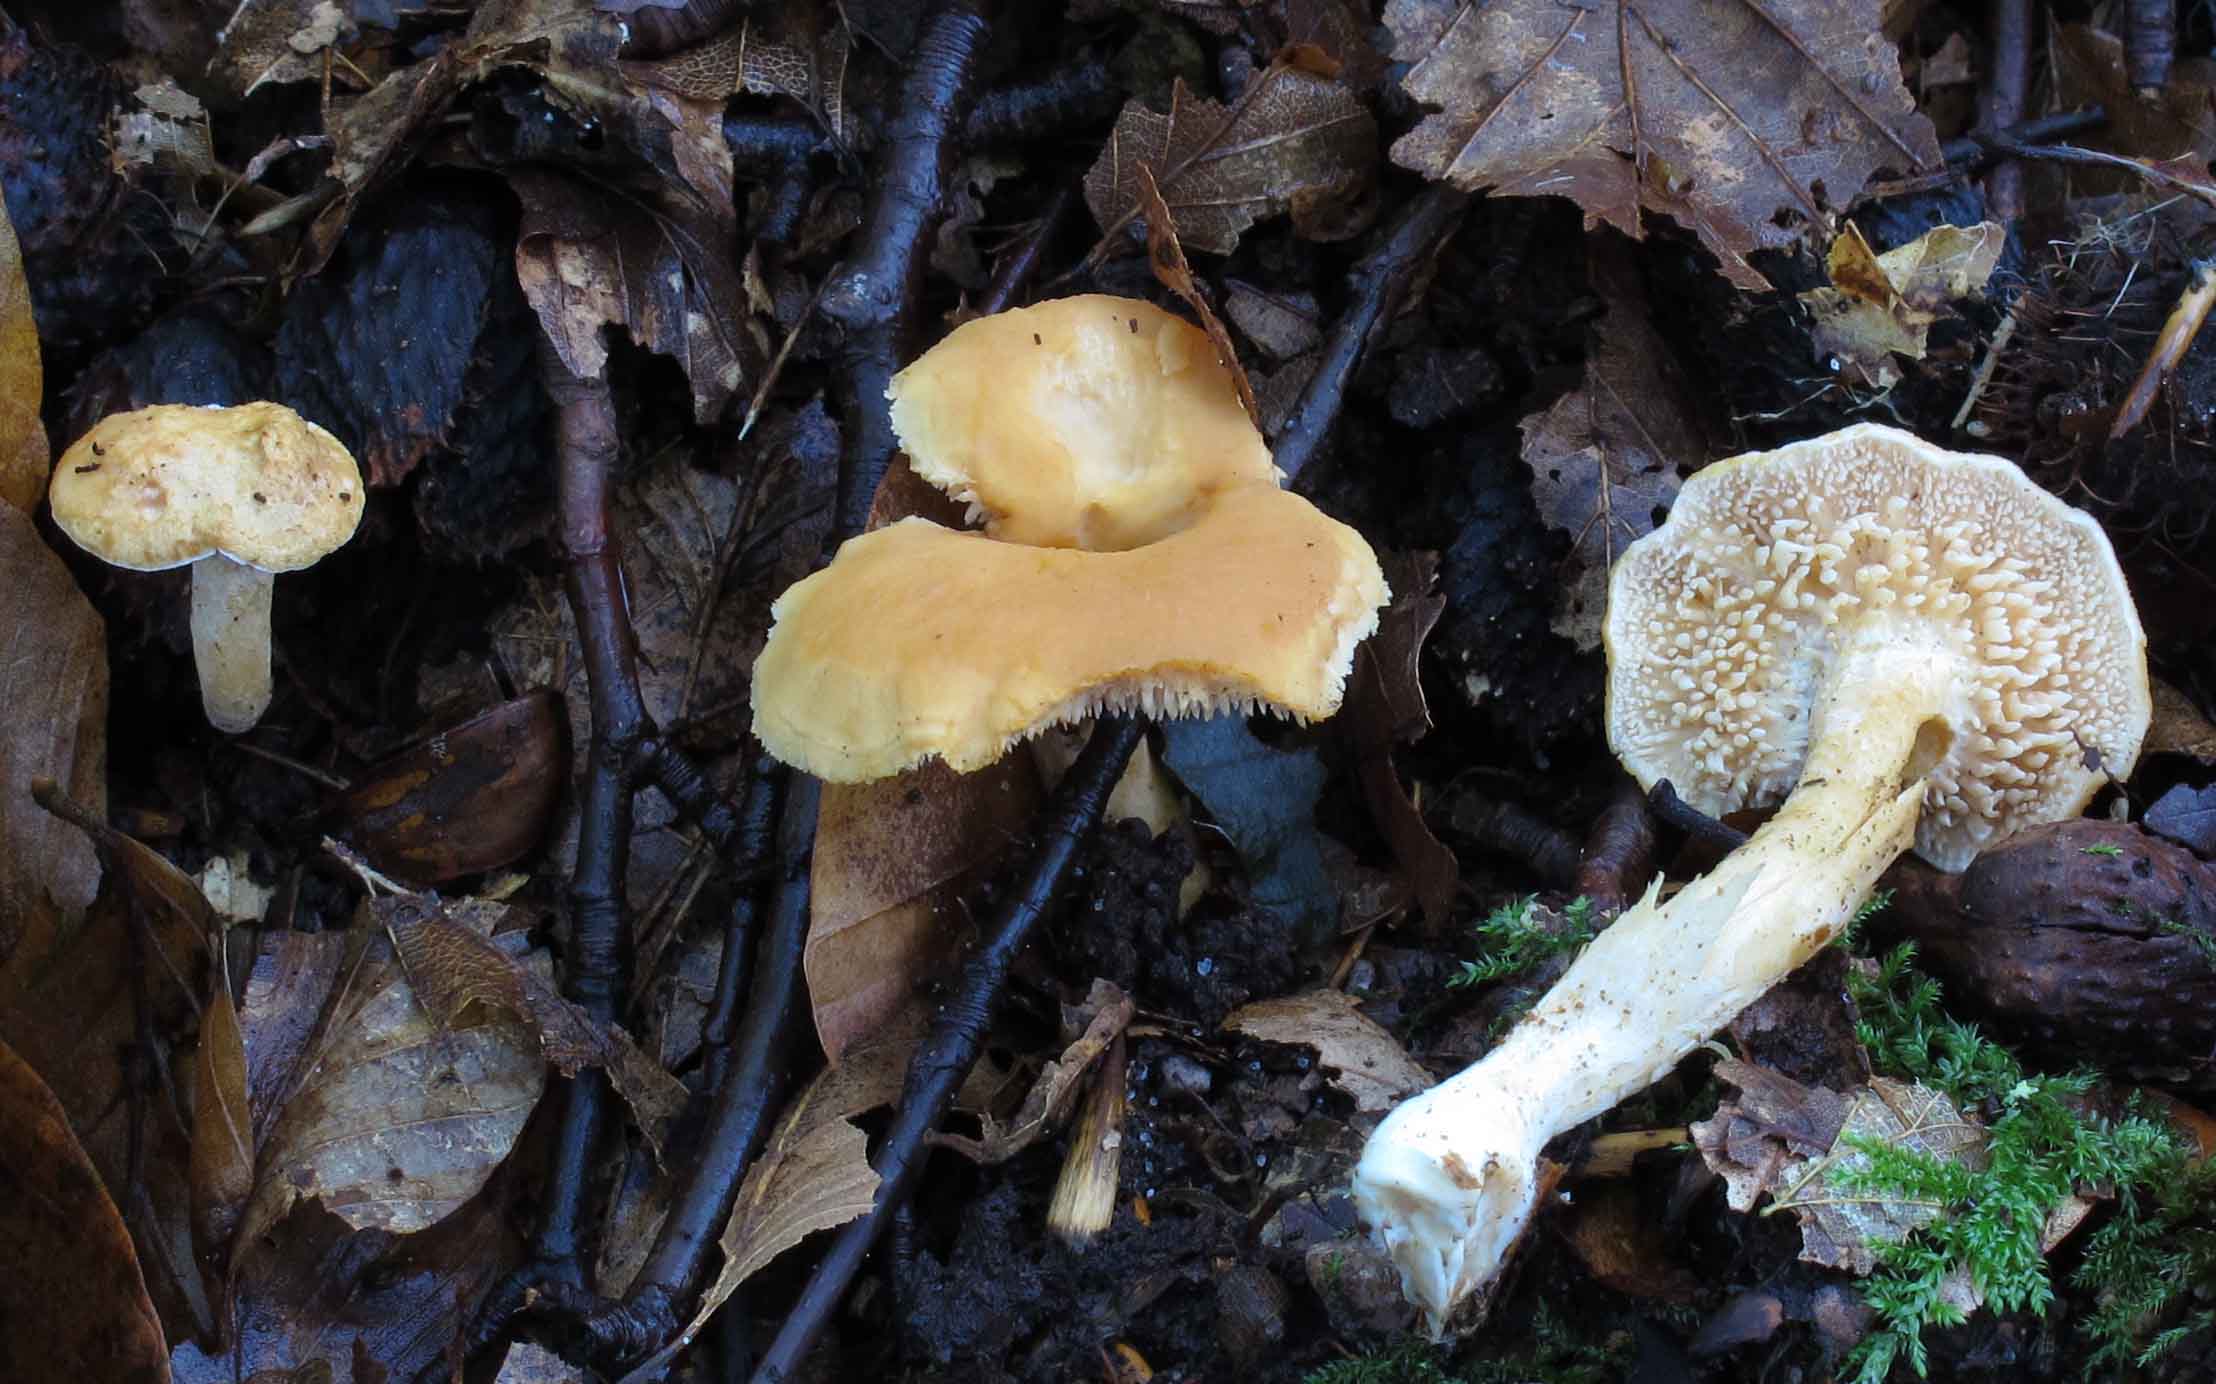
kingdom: Fungi
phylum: Basidiomycota
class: Agaricomycetes
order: Cantharellales
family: Hydnaceae
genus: Hydnum
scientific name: Hydnum umbilicatum
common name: navle-pigsvamp
